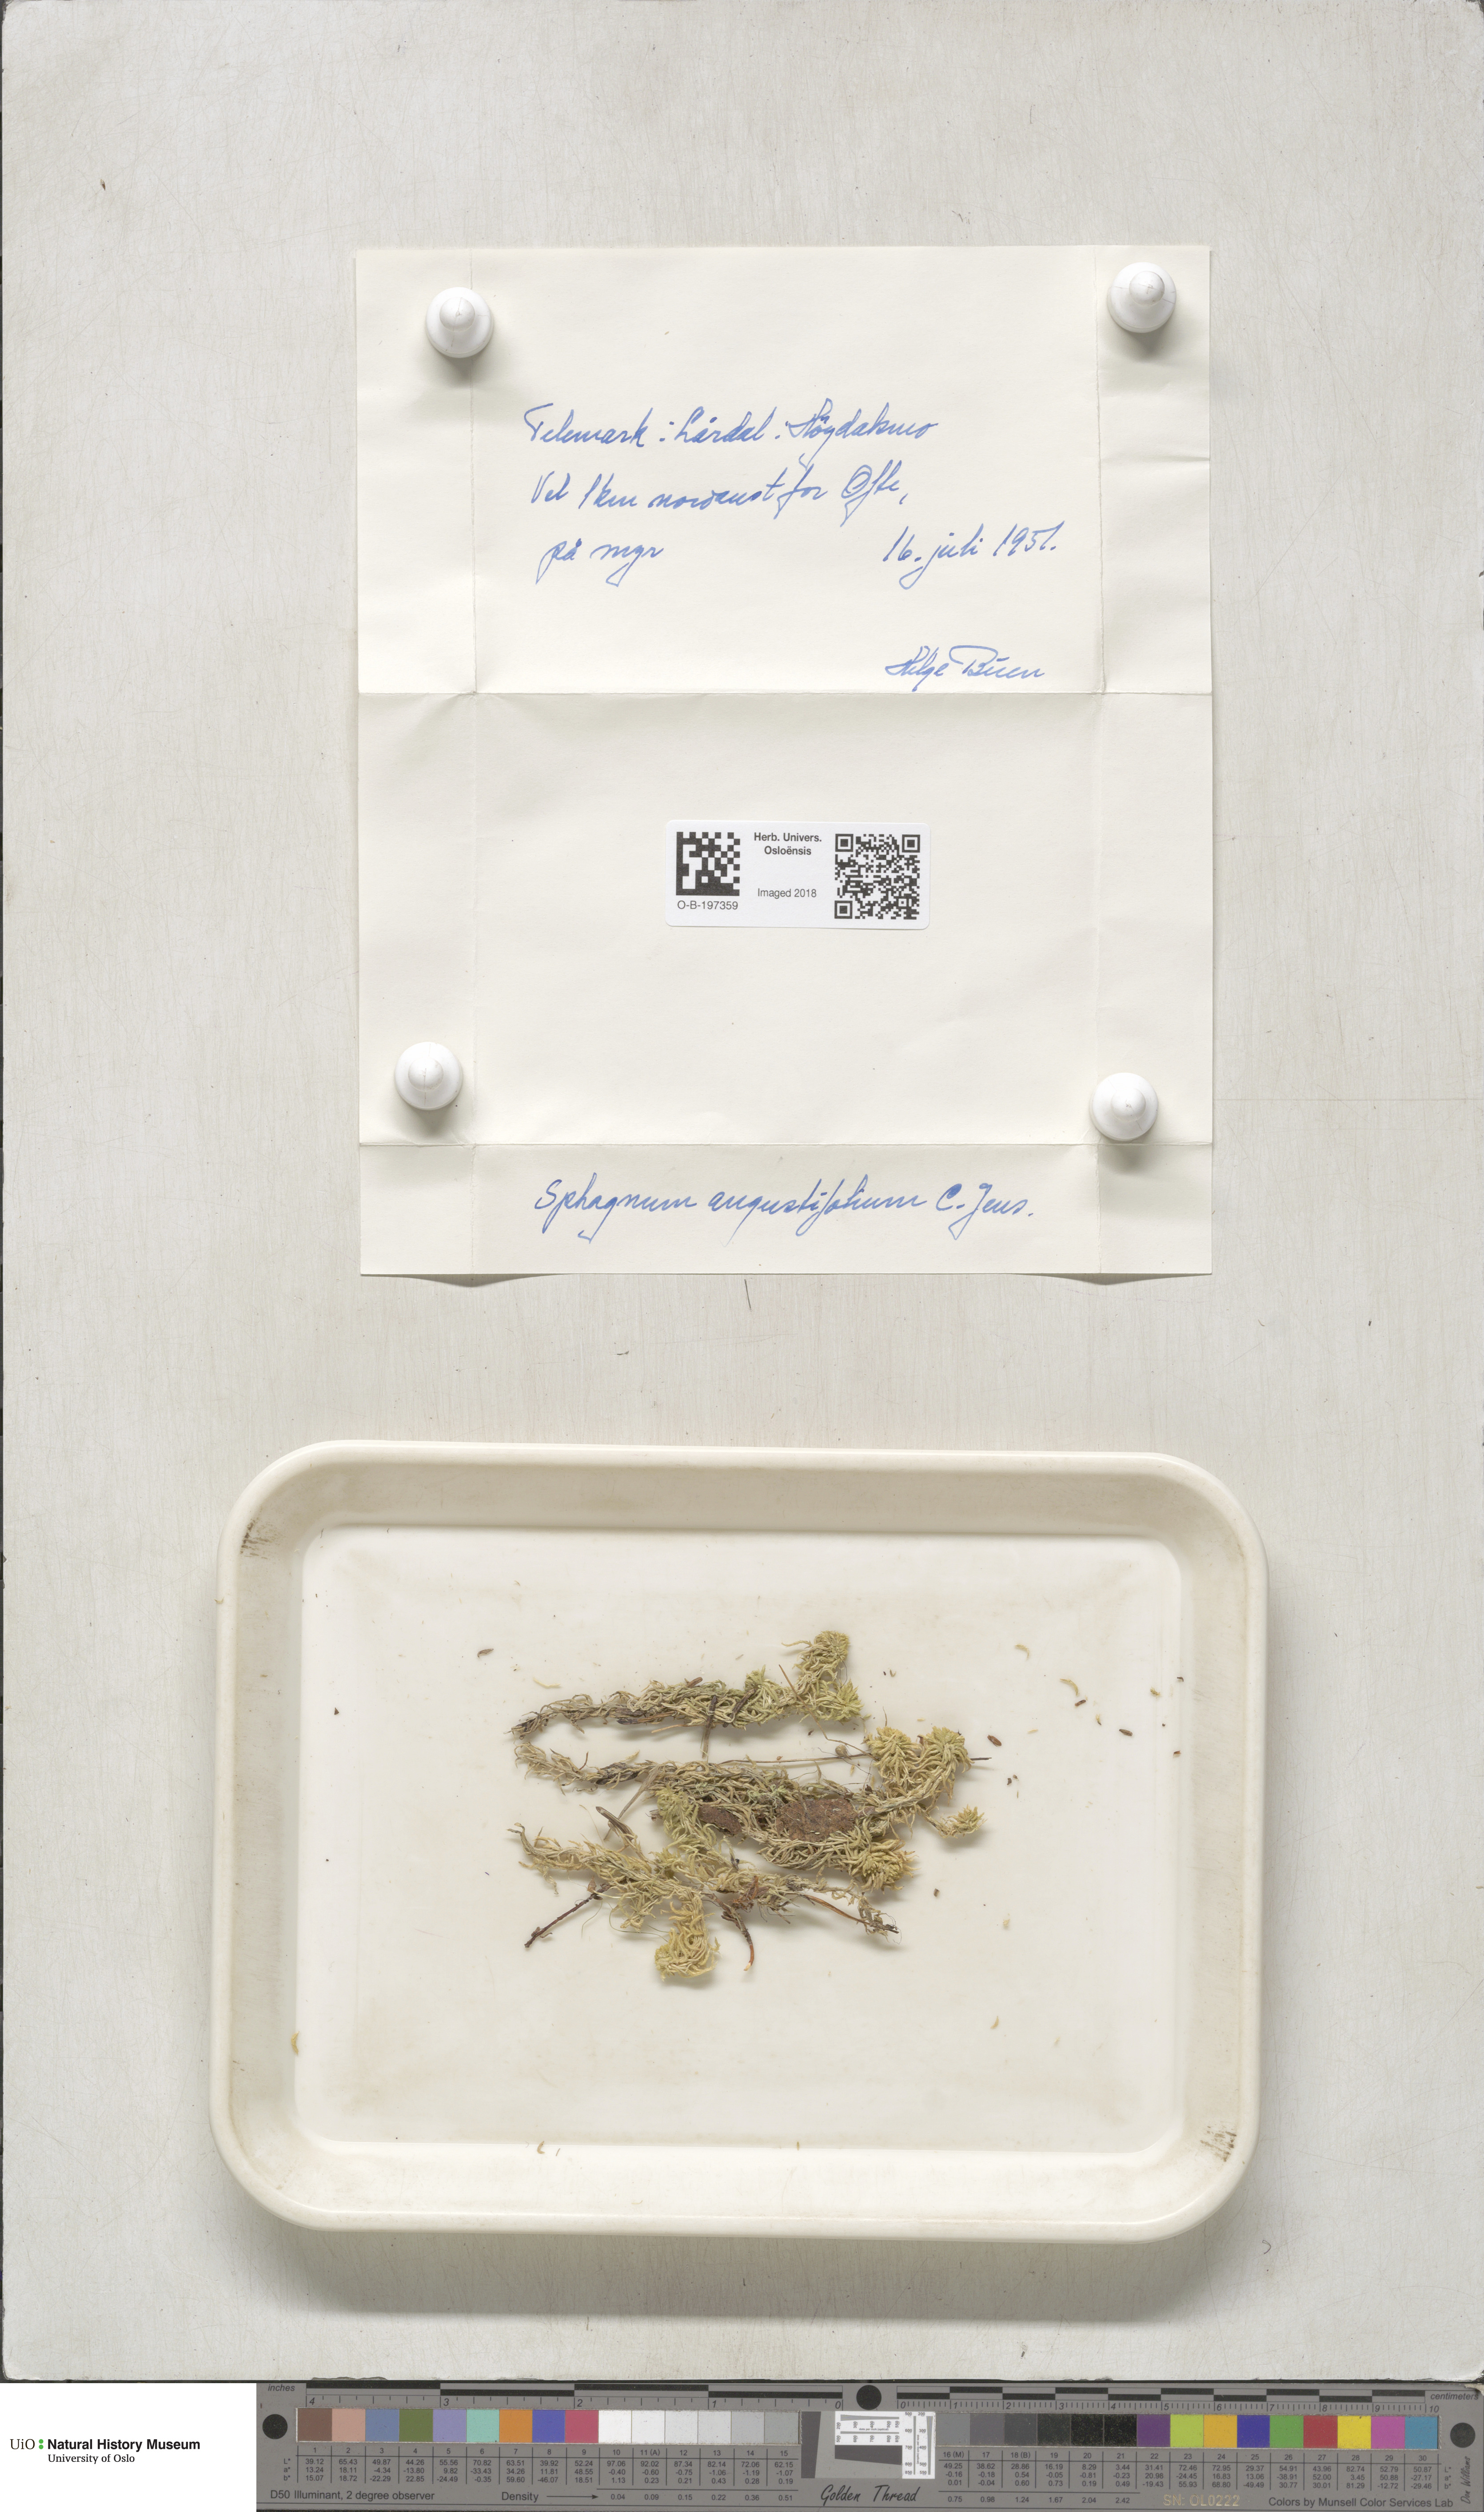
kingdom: Plantae
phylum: Bryophyta
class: Sphagnopsida
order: Sphagnales
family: Sphagnaceae
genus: Sphagnum
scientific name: Sphagnum angustifolium
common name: Narrow-leaved peat moss
